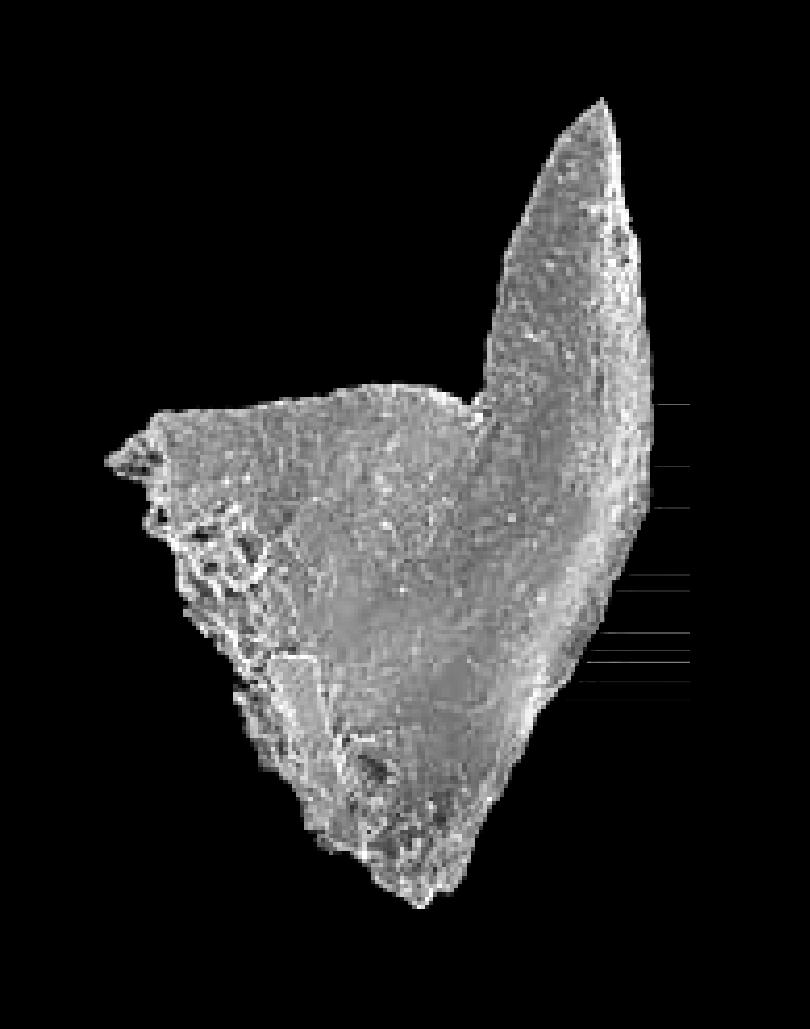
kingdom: Animalia
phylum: Chordata
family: Balognathidae
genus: Trapezognathus
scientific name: Trapezognathus Prioniodina diprion
